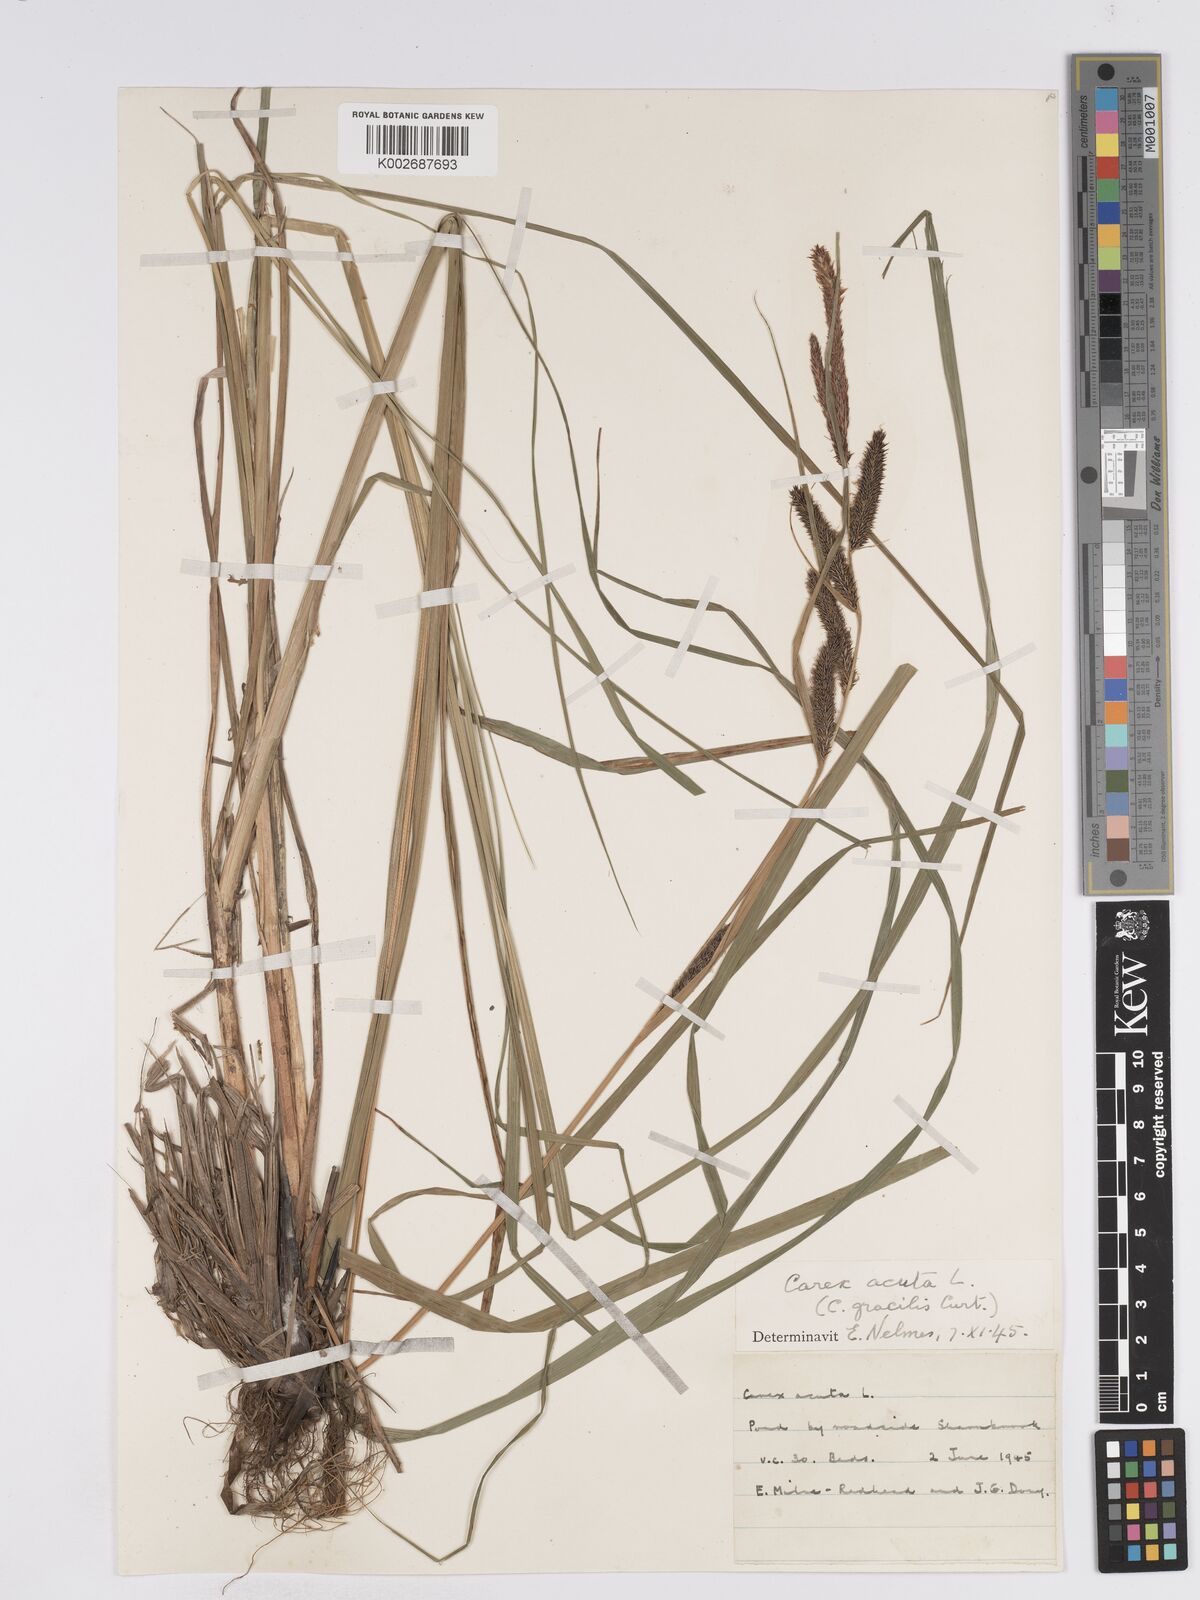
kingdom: Plantae
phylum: Tracheophyta
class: Liliopsida
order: Poales
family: Cyperaceae
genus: Carex
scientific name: Carex acuta
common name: Slender tufted-sedge
